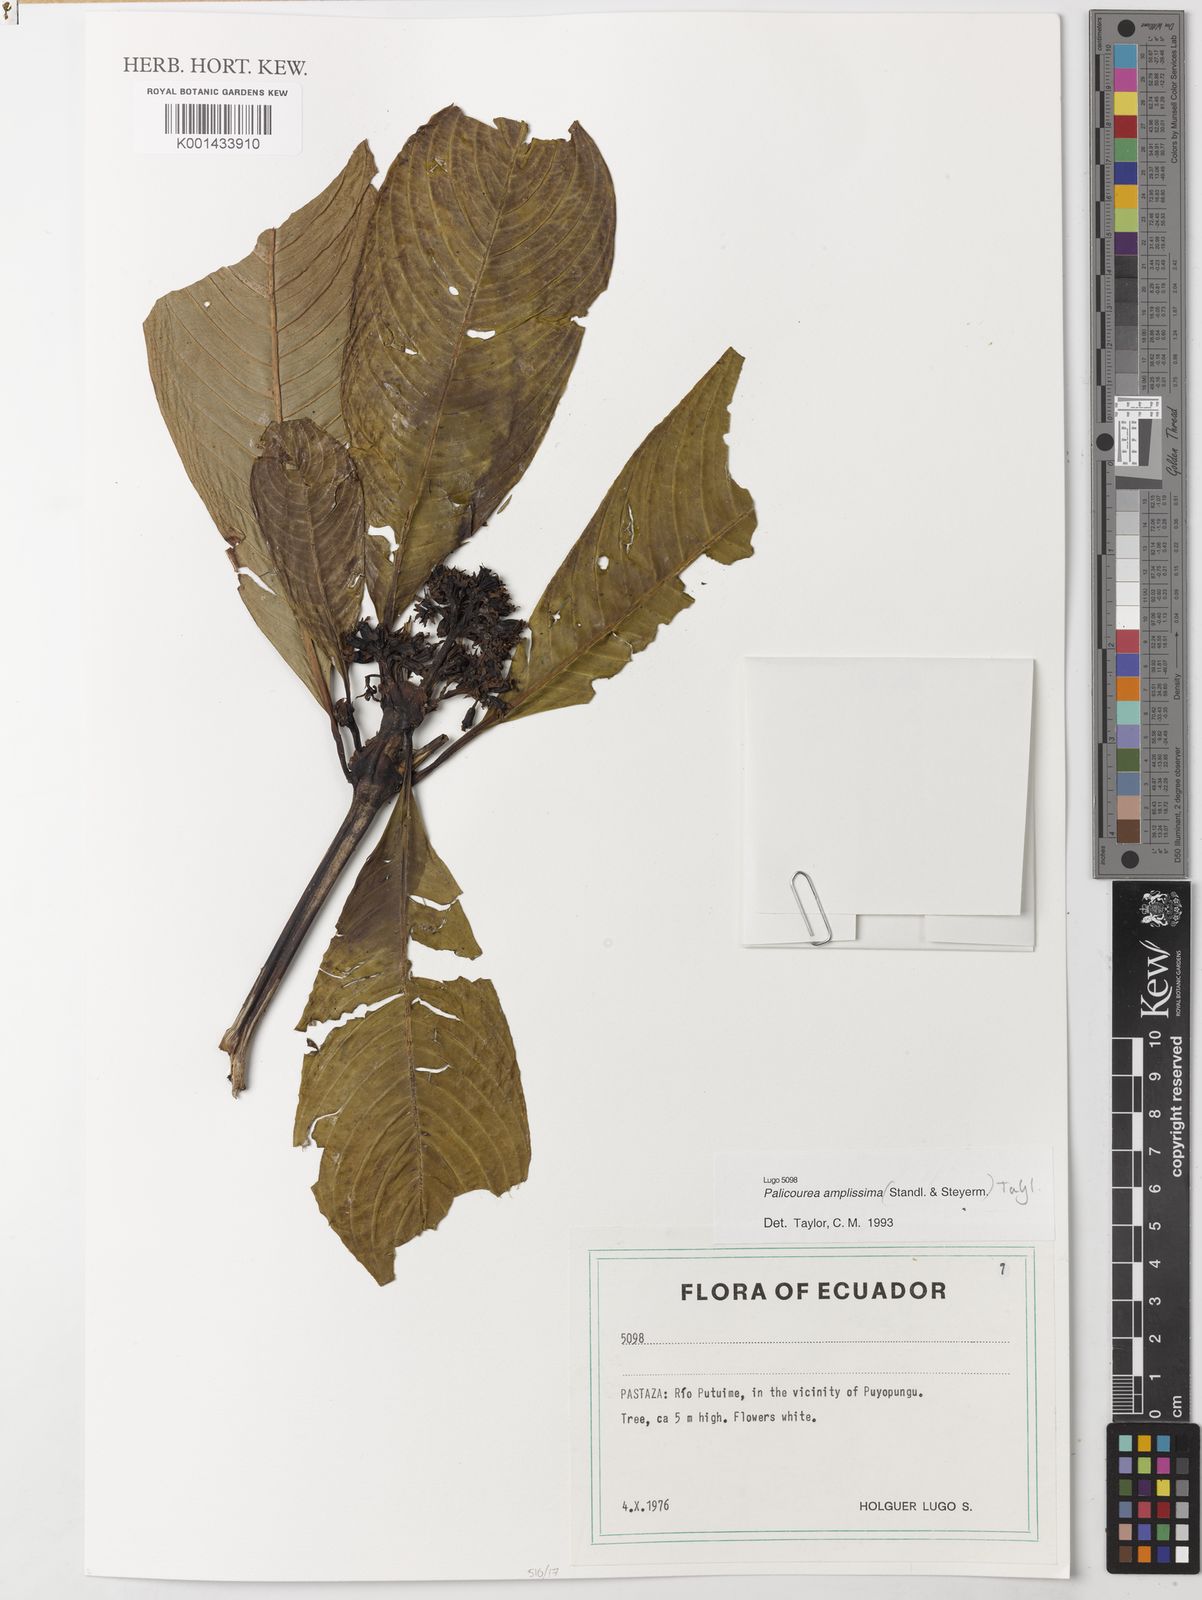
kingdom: Plantae
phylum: Tracheophyta
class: Magnoliopsida
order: Gentianales
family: Rubiaceae
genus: Palicourea
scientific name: Palicourea amplissima
